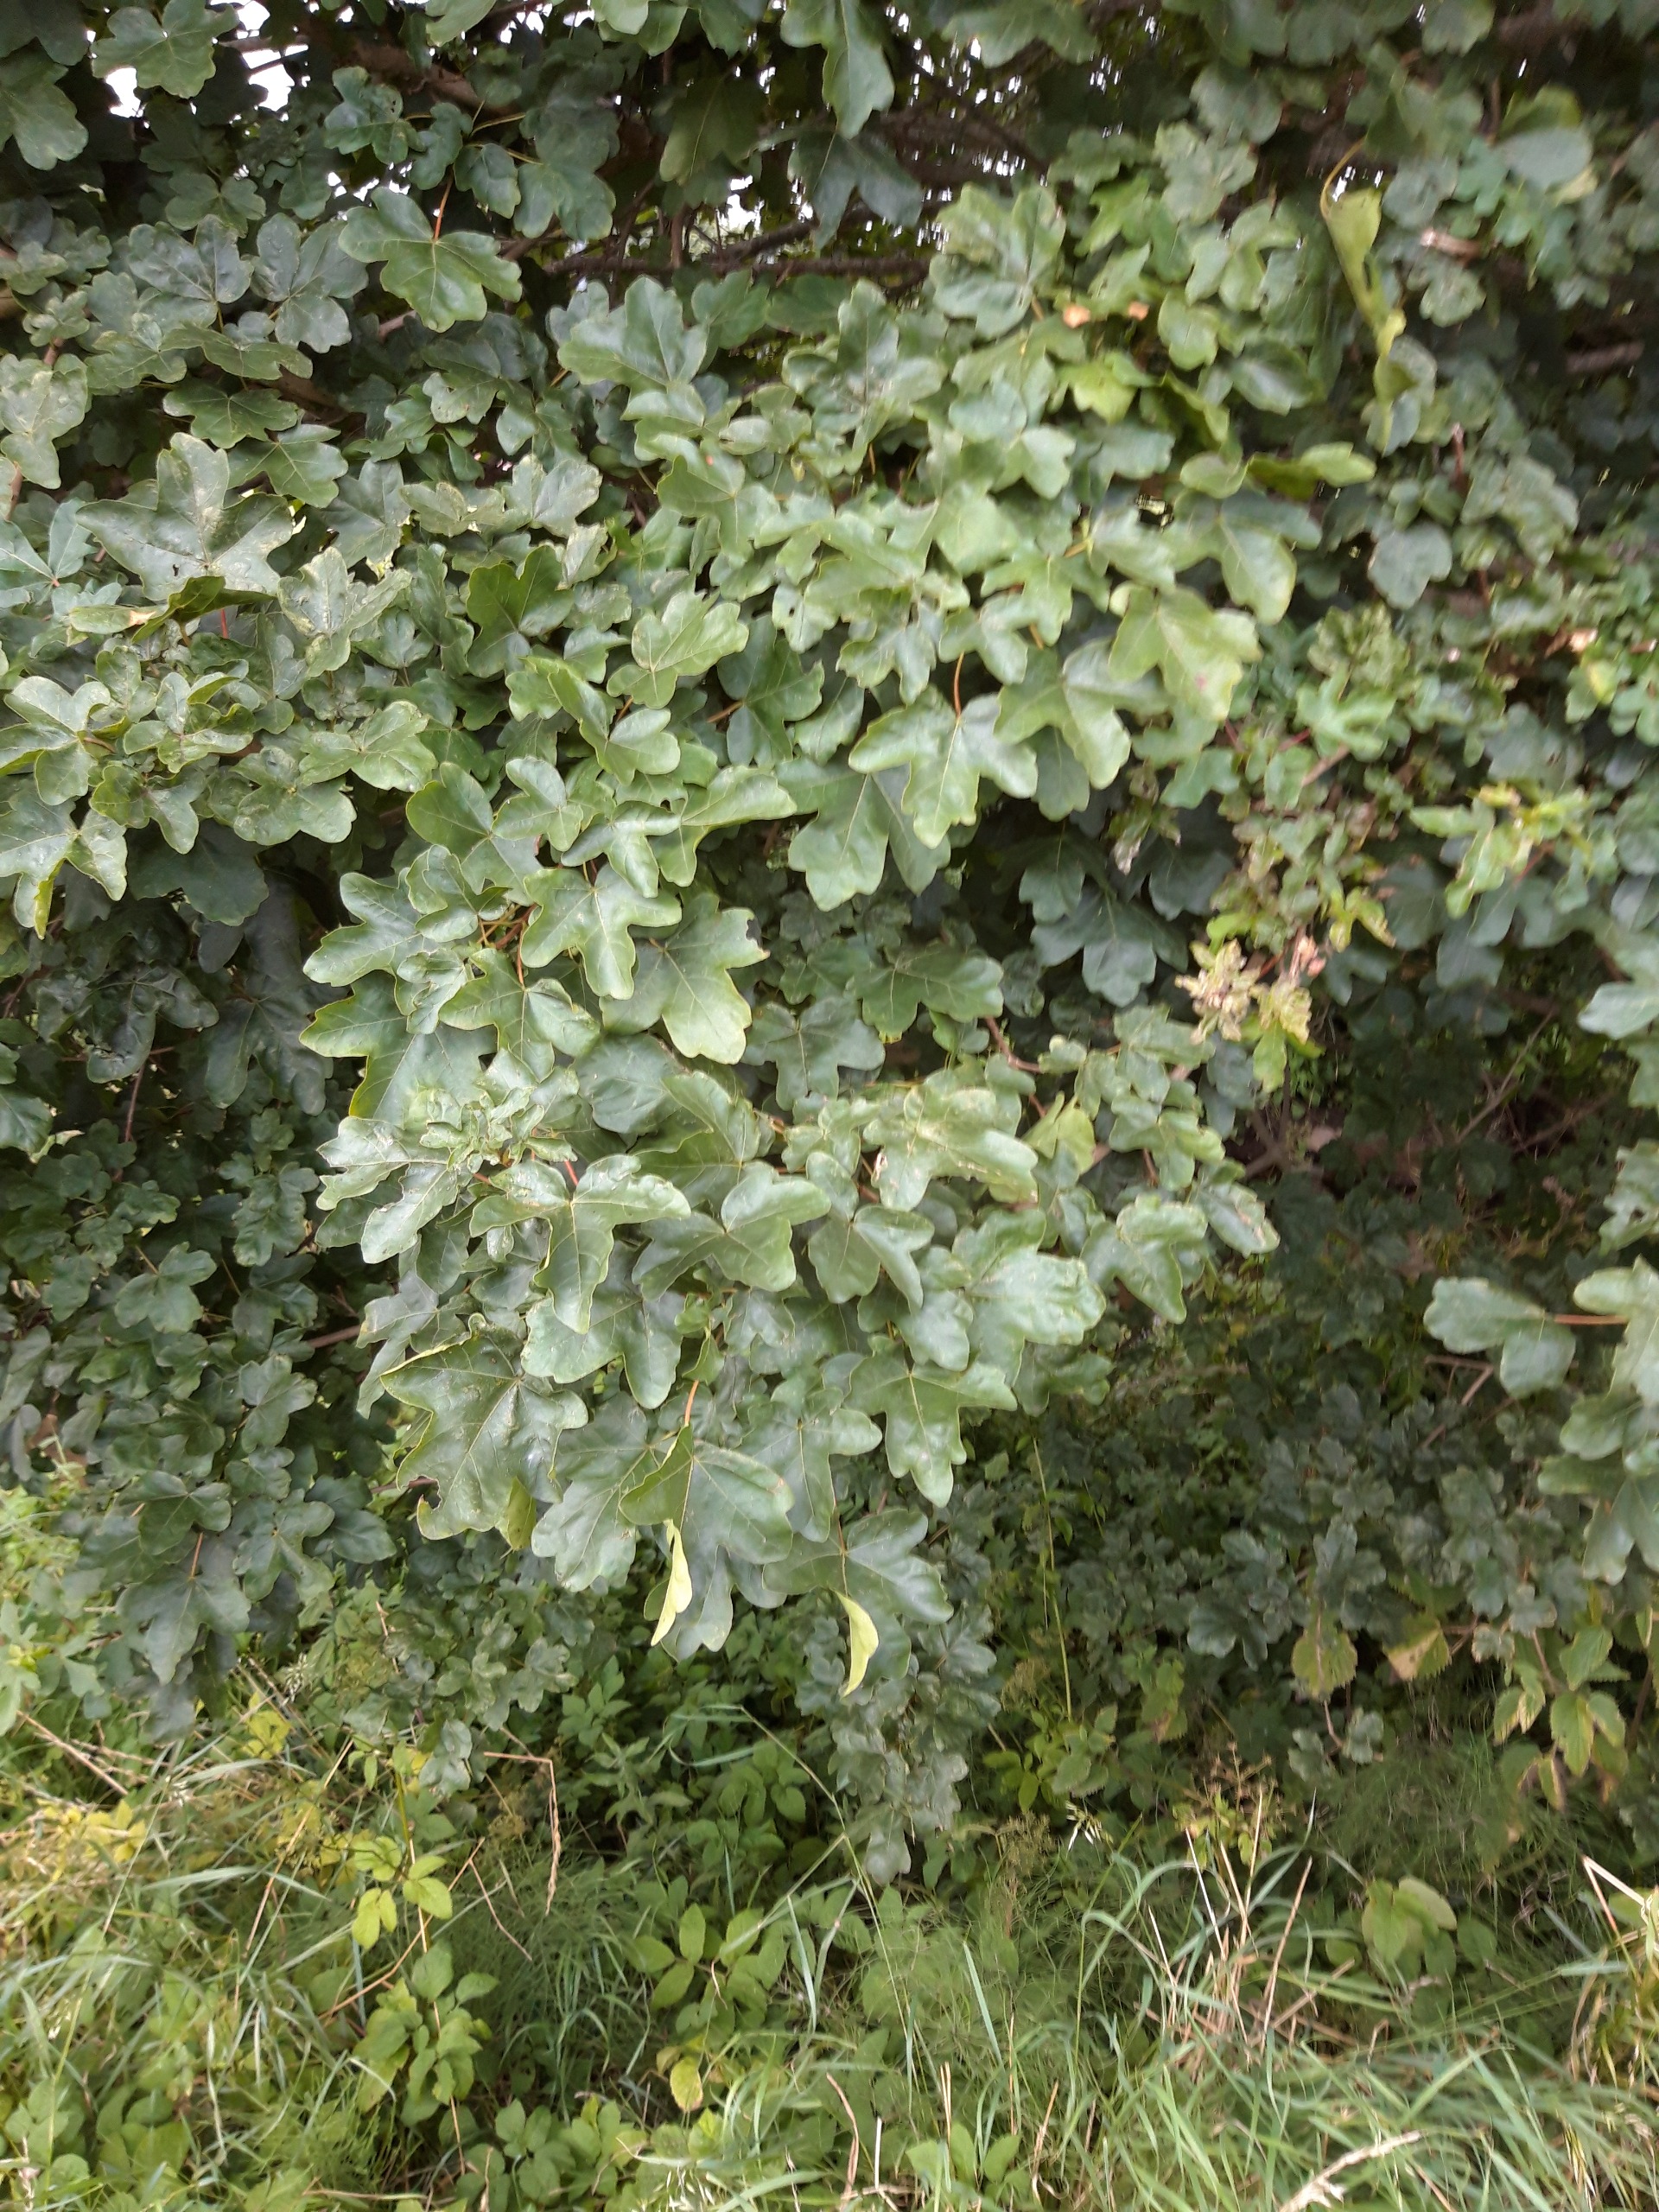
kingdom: Plantae
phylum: Tracheophyta
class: Magnoliopsida
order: Sapindales
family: Sapindaceae
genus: Acer
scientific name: Acer campestre
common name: Navr
